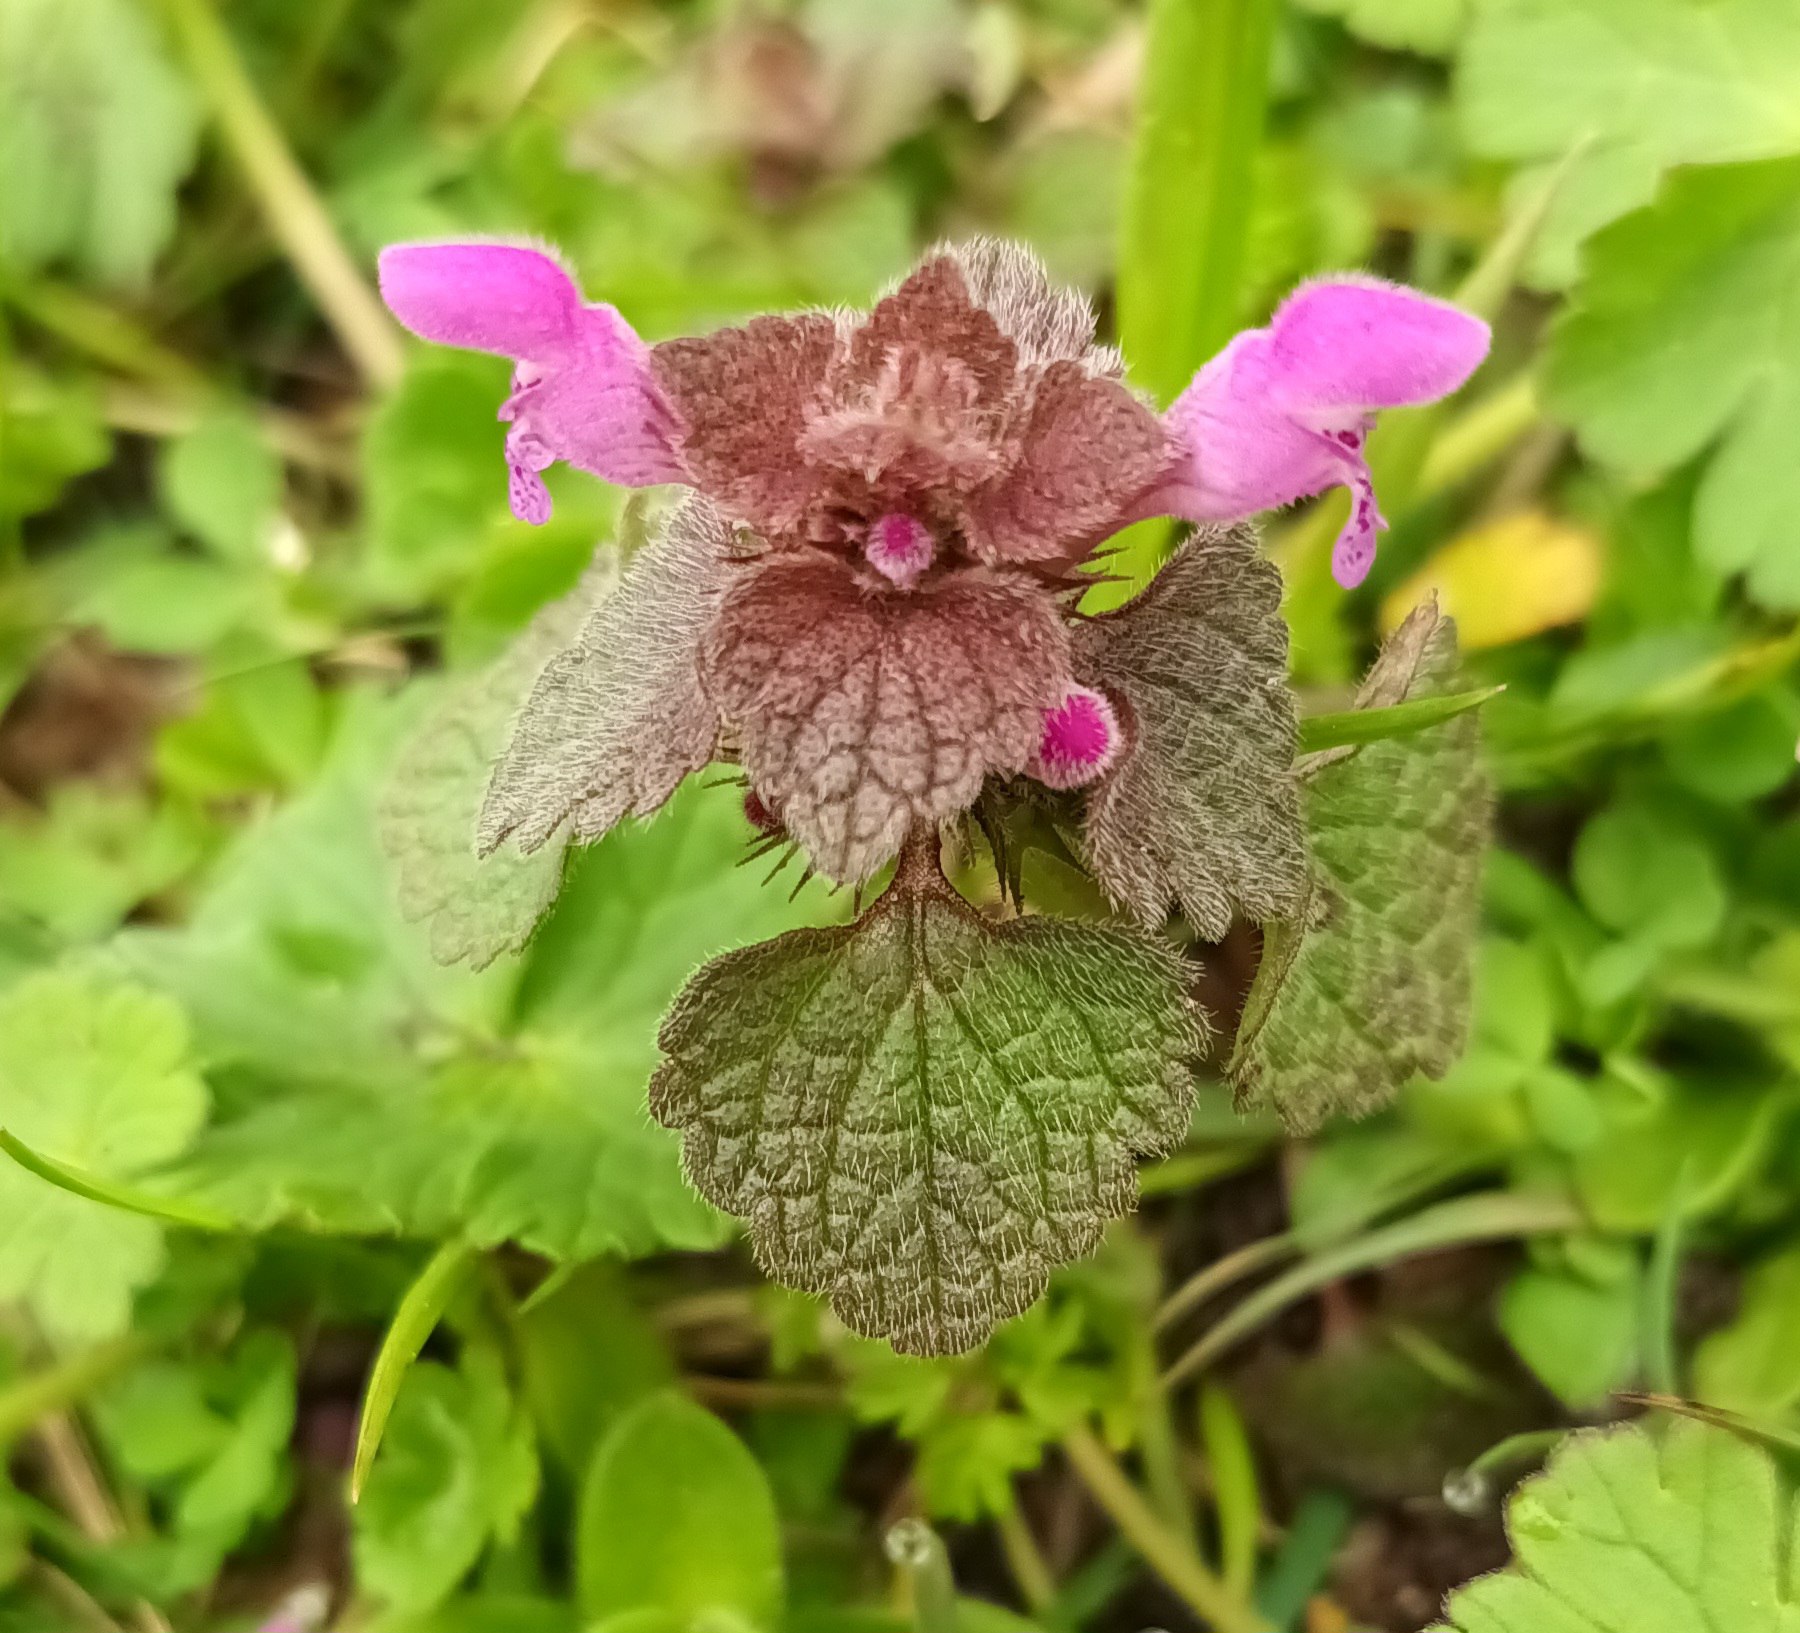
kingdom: Plantae
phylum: Tracheophyta
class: Magnoliopsida
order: Lamiales
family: Lamiaceae
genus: Lamium
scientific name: Lamium purpureum
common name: Rød tvetand
